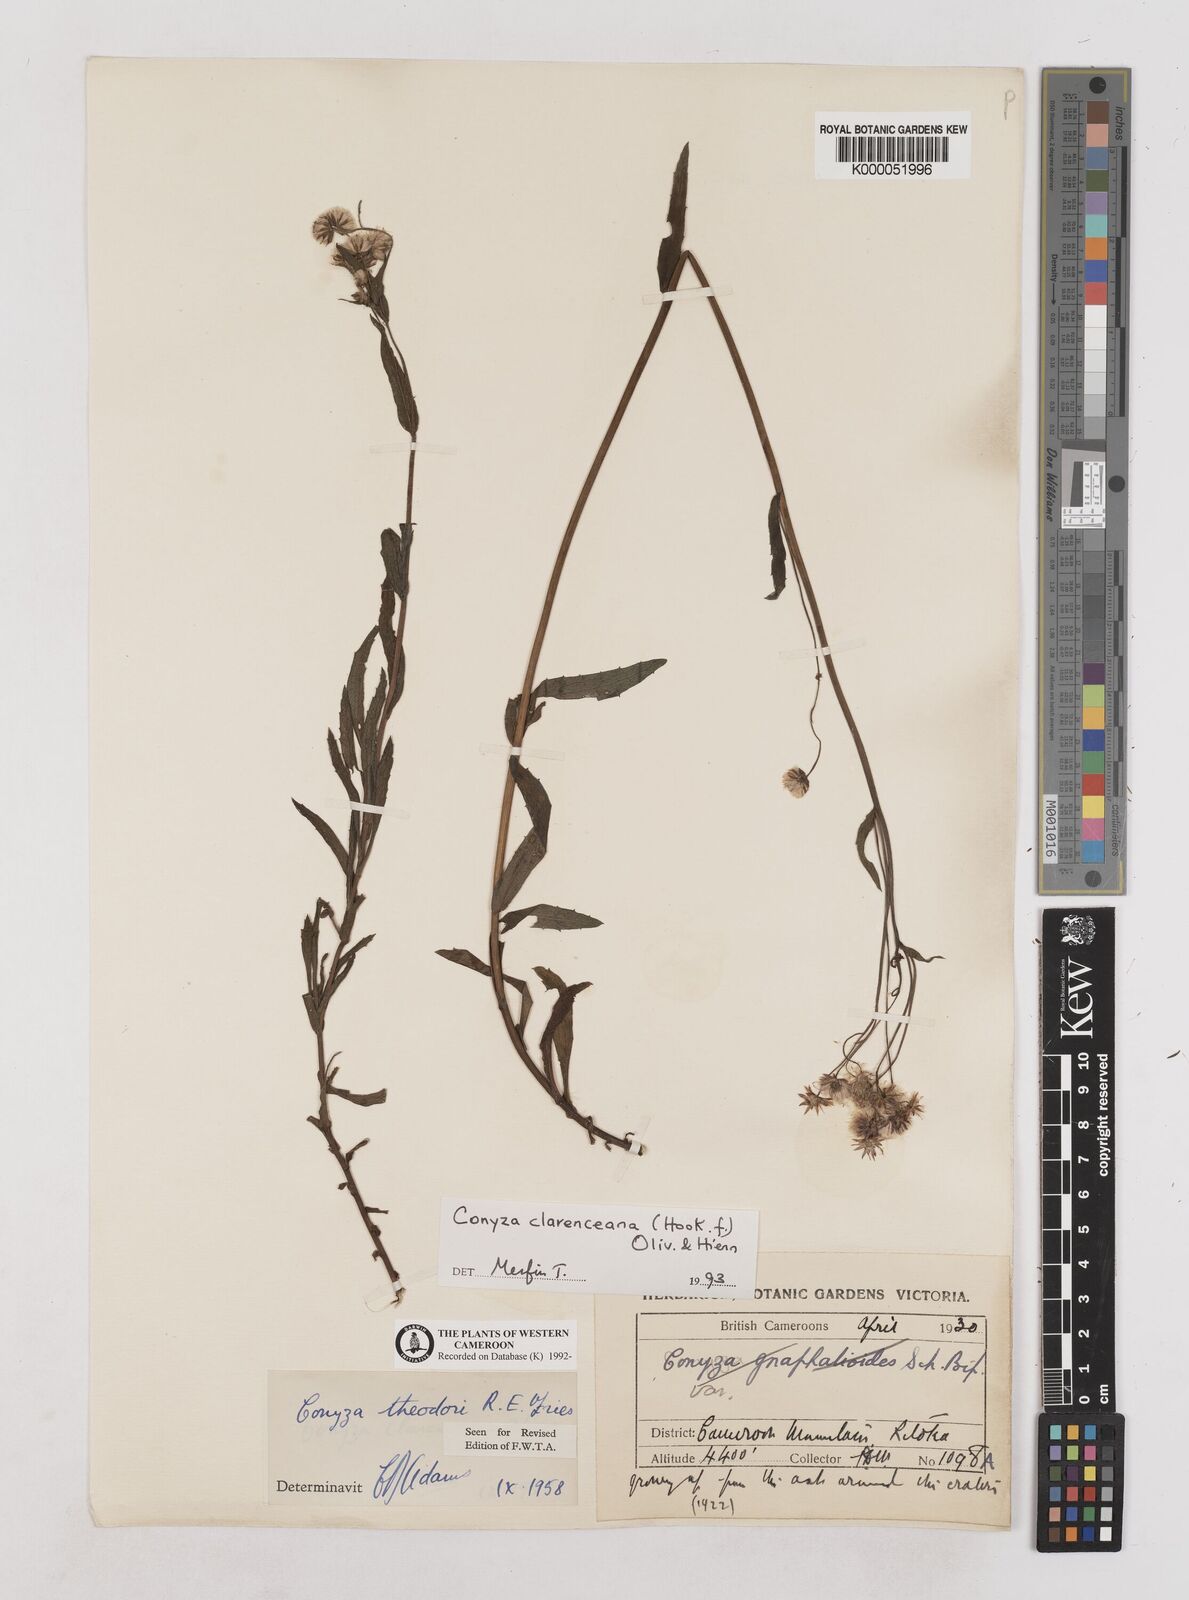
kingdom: Plantae
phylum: Tracheophyta
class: Magnoliopsida
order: Asterales
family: Asteraceae
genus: Conyza
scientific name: Conyza baumii
